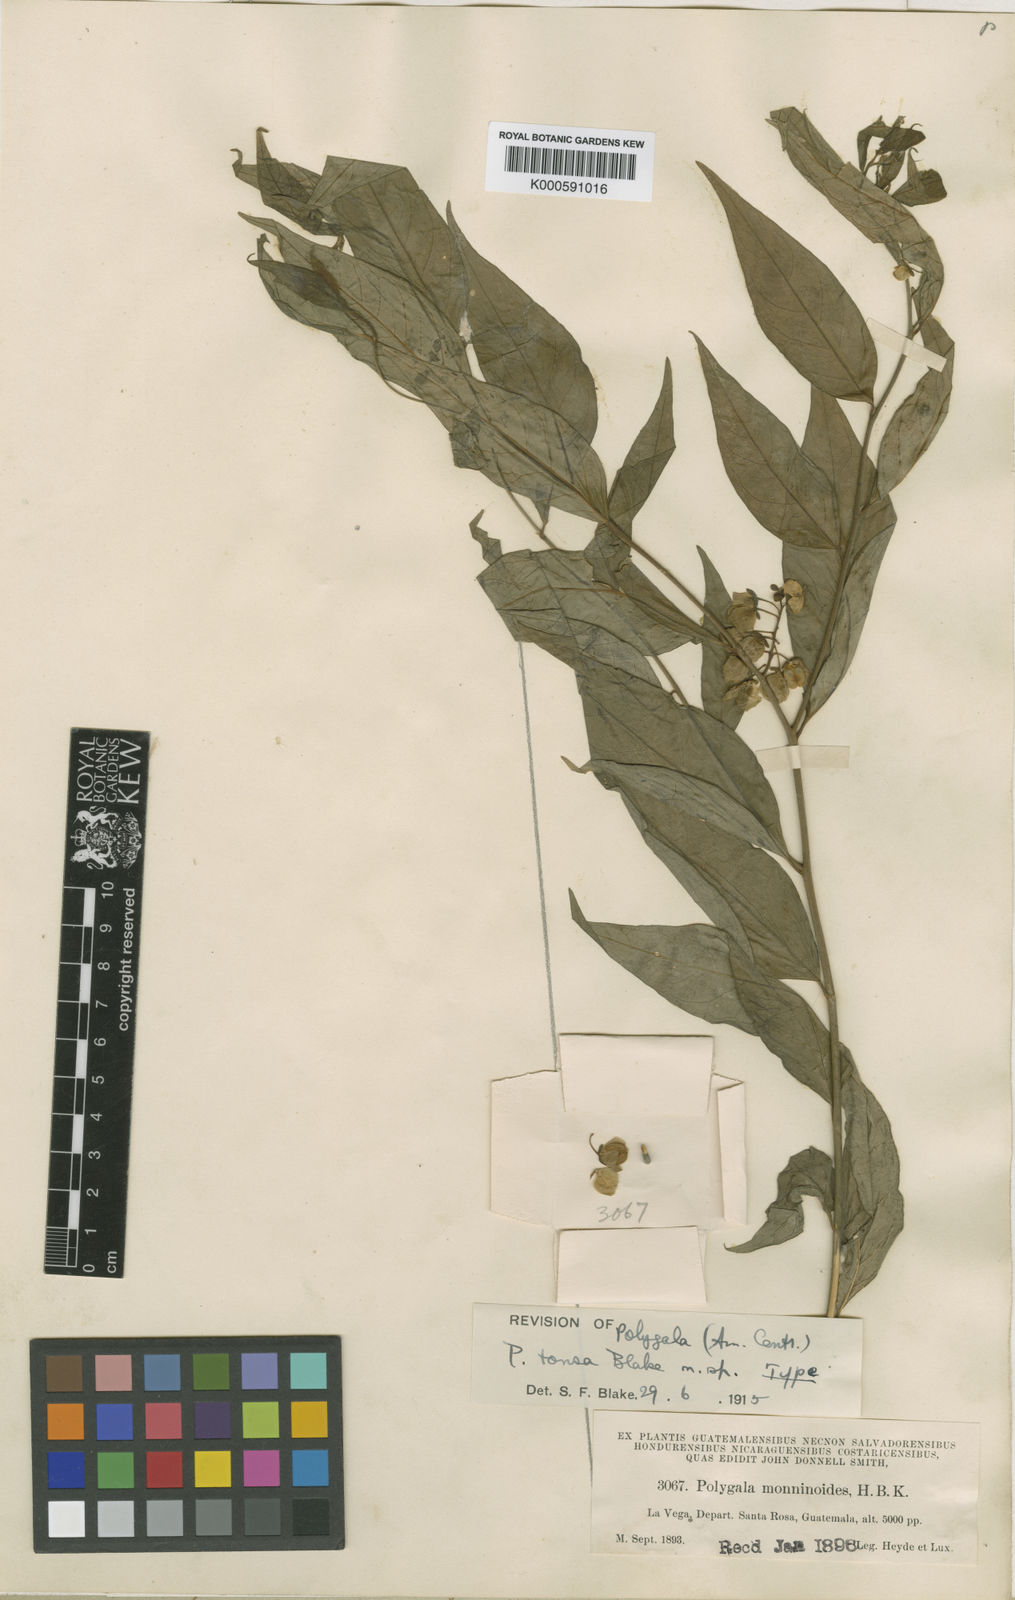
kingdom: Plantae
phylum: Tracheophyta
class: Magnoliopsida
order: Fabales
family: Polygalaceae
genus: Asemeia
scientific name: Asemeia tonsa
